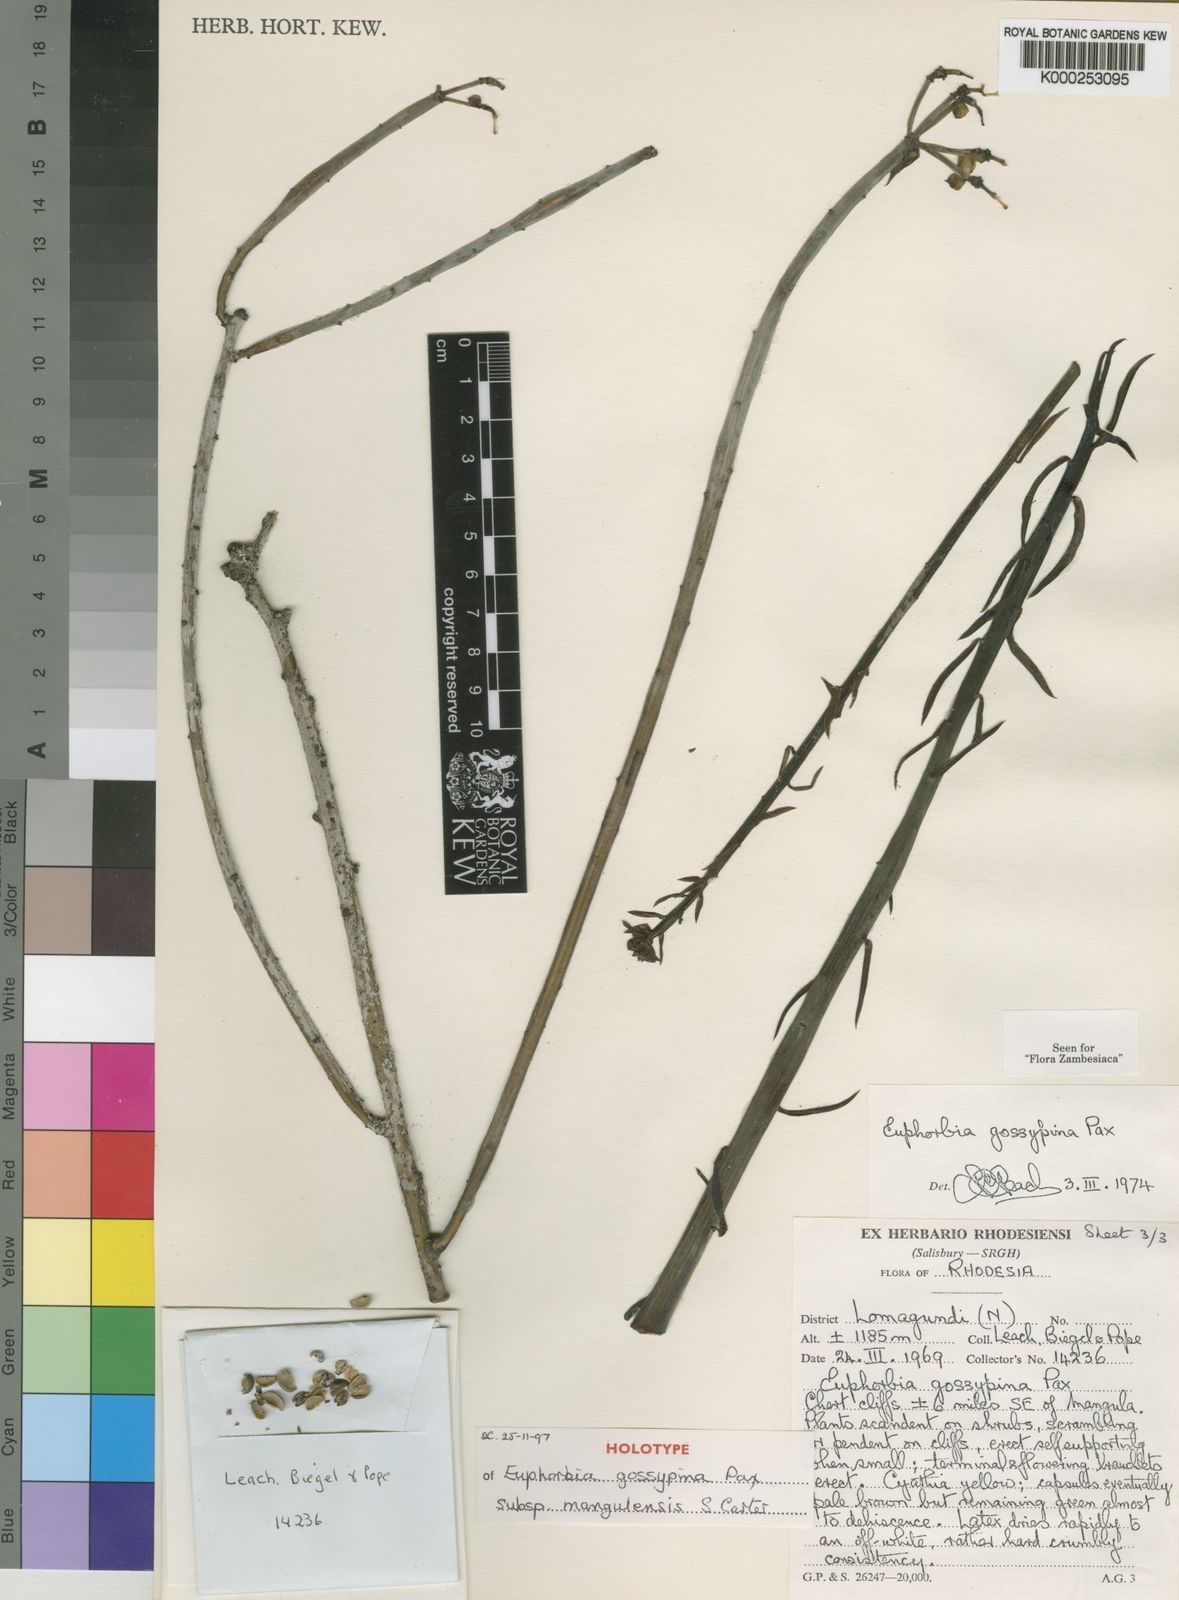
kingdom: Plantae
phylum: Tracheophyta
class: Magnoliopsida
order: Malpighiales
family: Euphorbiaceae
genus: Euphorbia
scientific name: Euphorbia gossypina
